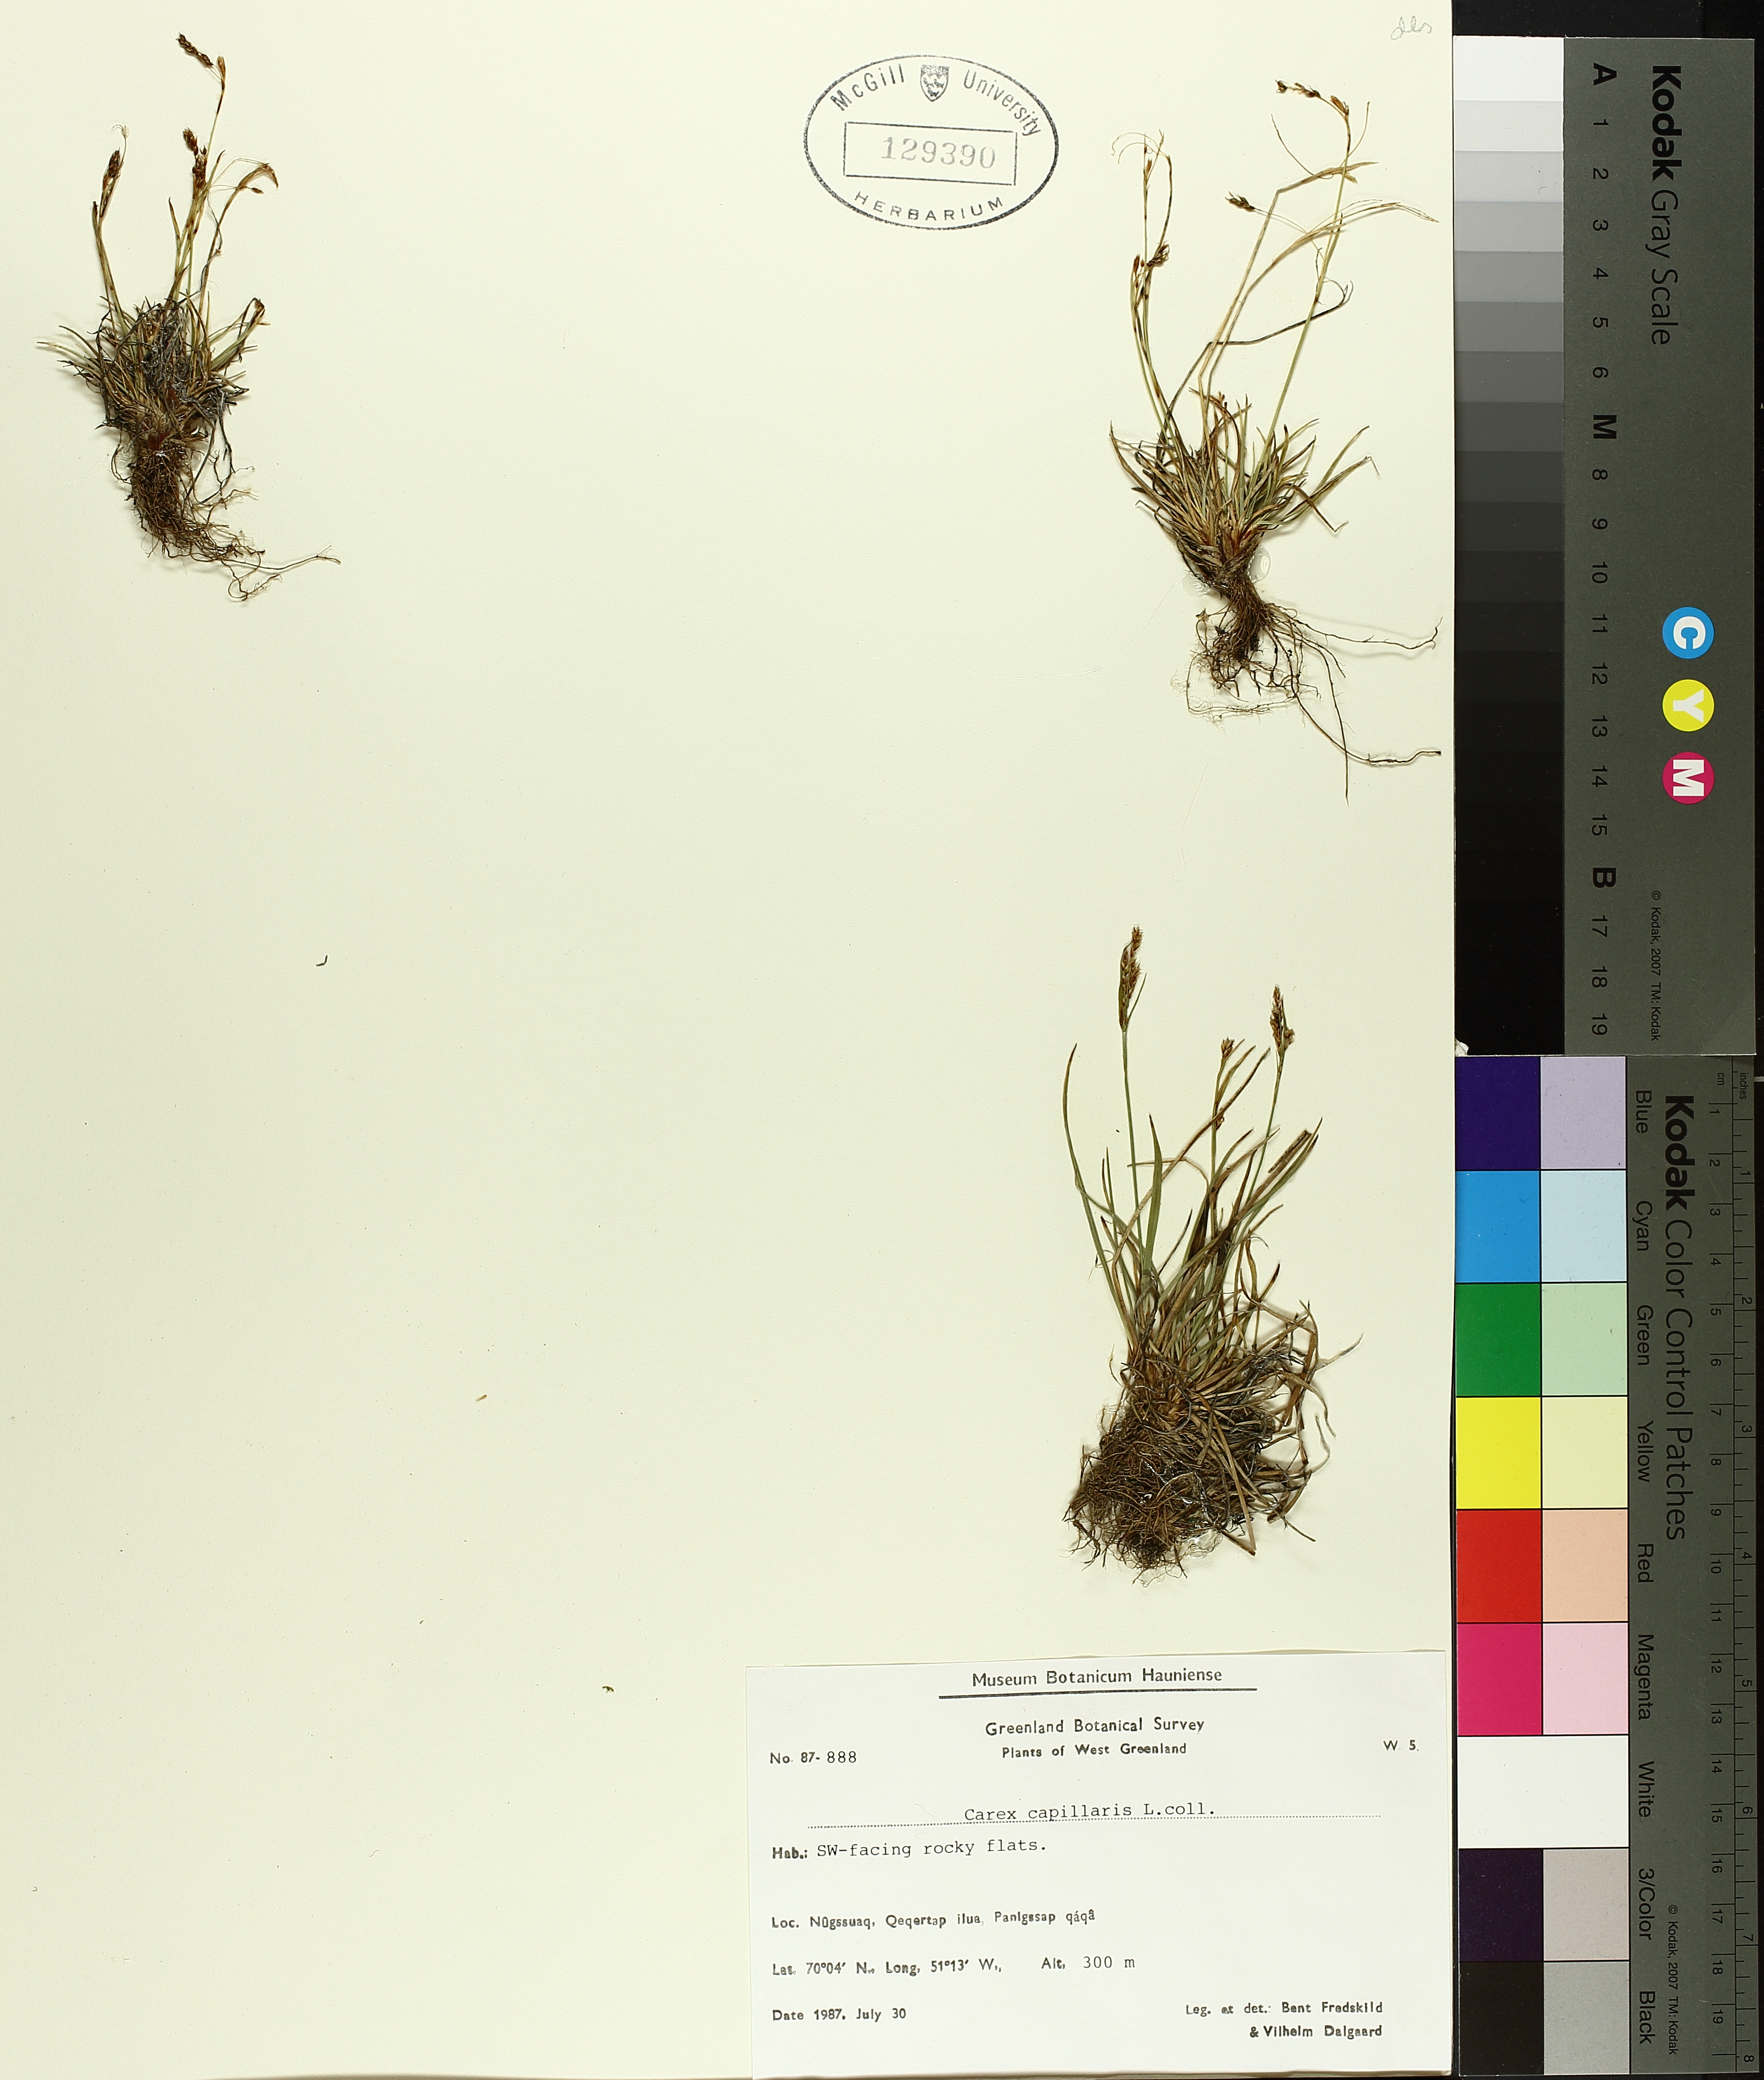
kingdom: Plantae
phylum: Tracheophyta
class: Liliopsida
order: Poales
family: Cyperaceae
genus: Carex
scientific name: Carex capillaris
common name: Hair sedge
